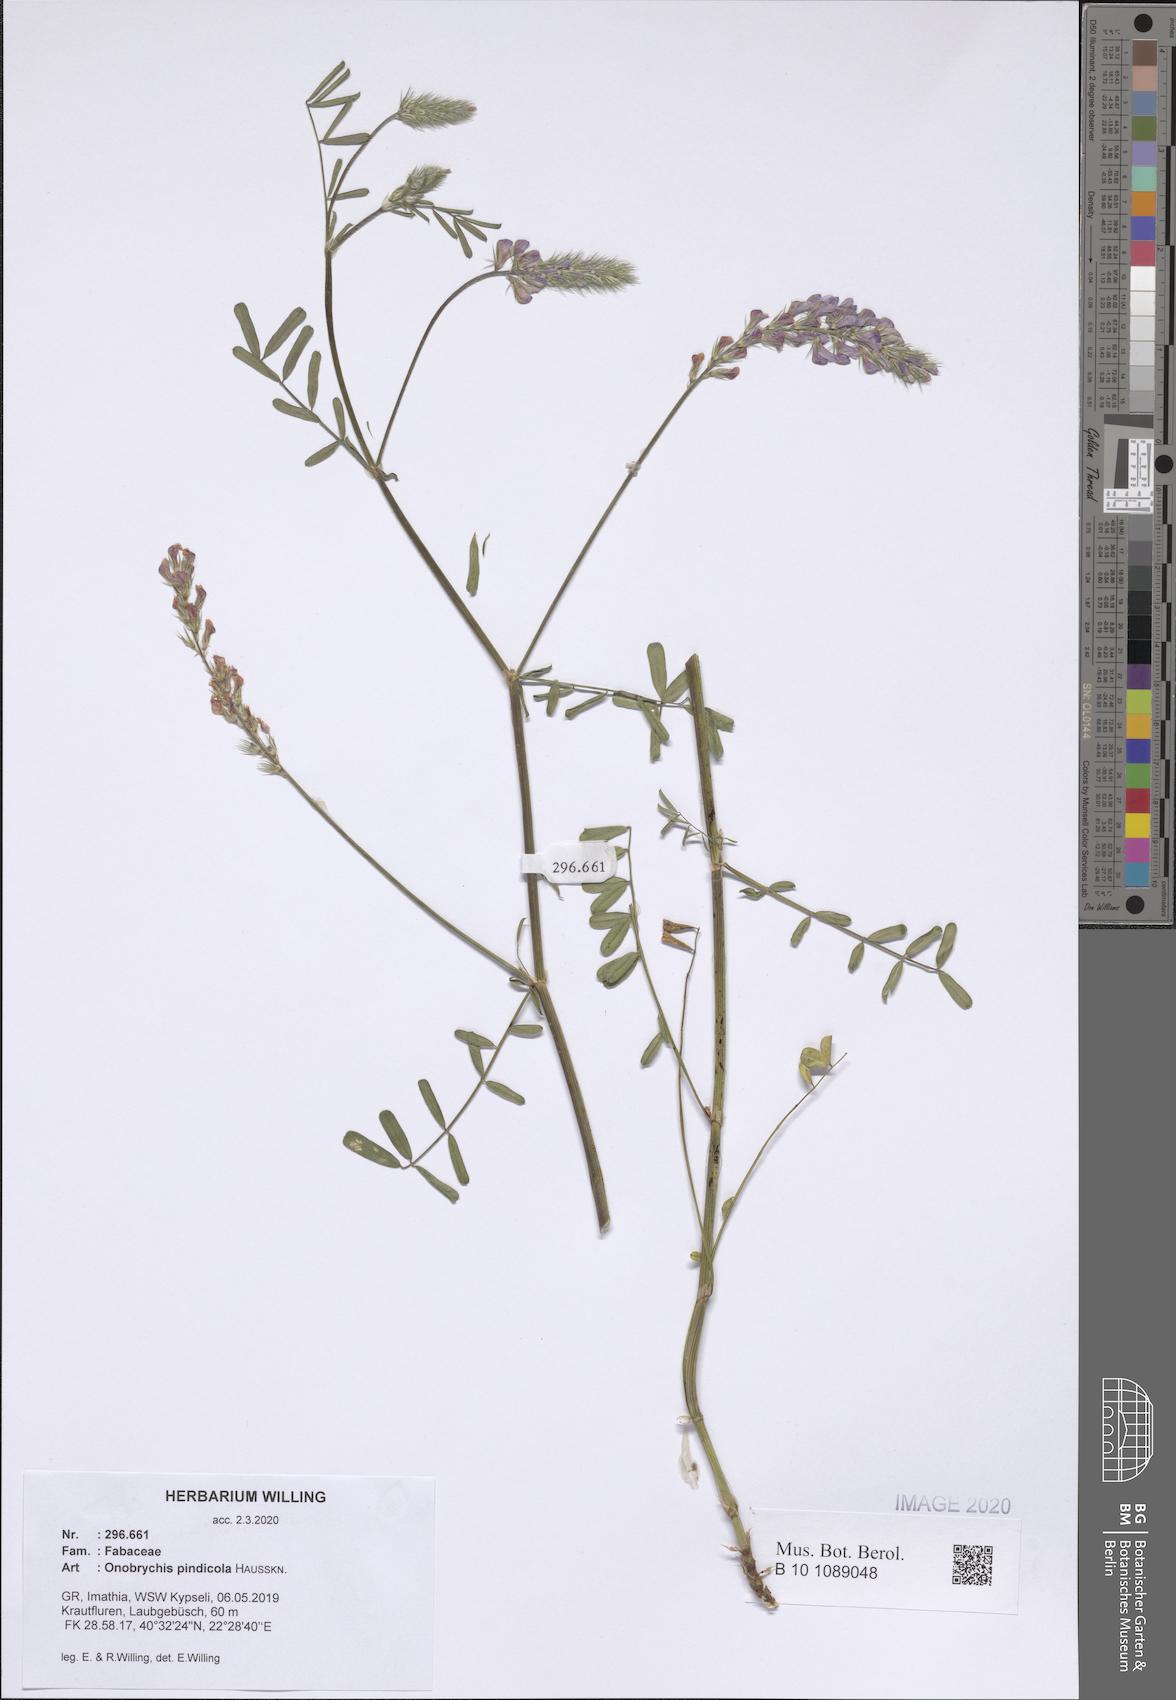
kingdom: Plantae
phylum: Tracheophyta
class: Magnoliopsida
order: Fabales
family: Fabaceae
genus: Onobrychis
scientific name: Onobrychis pindicola
